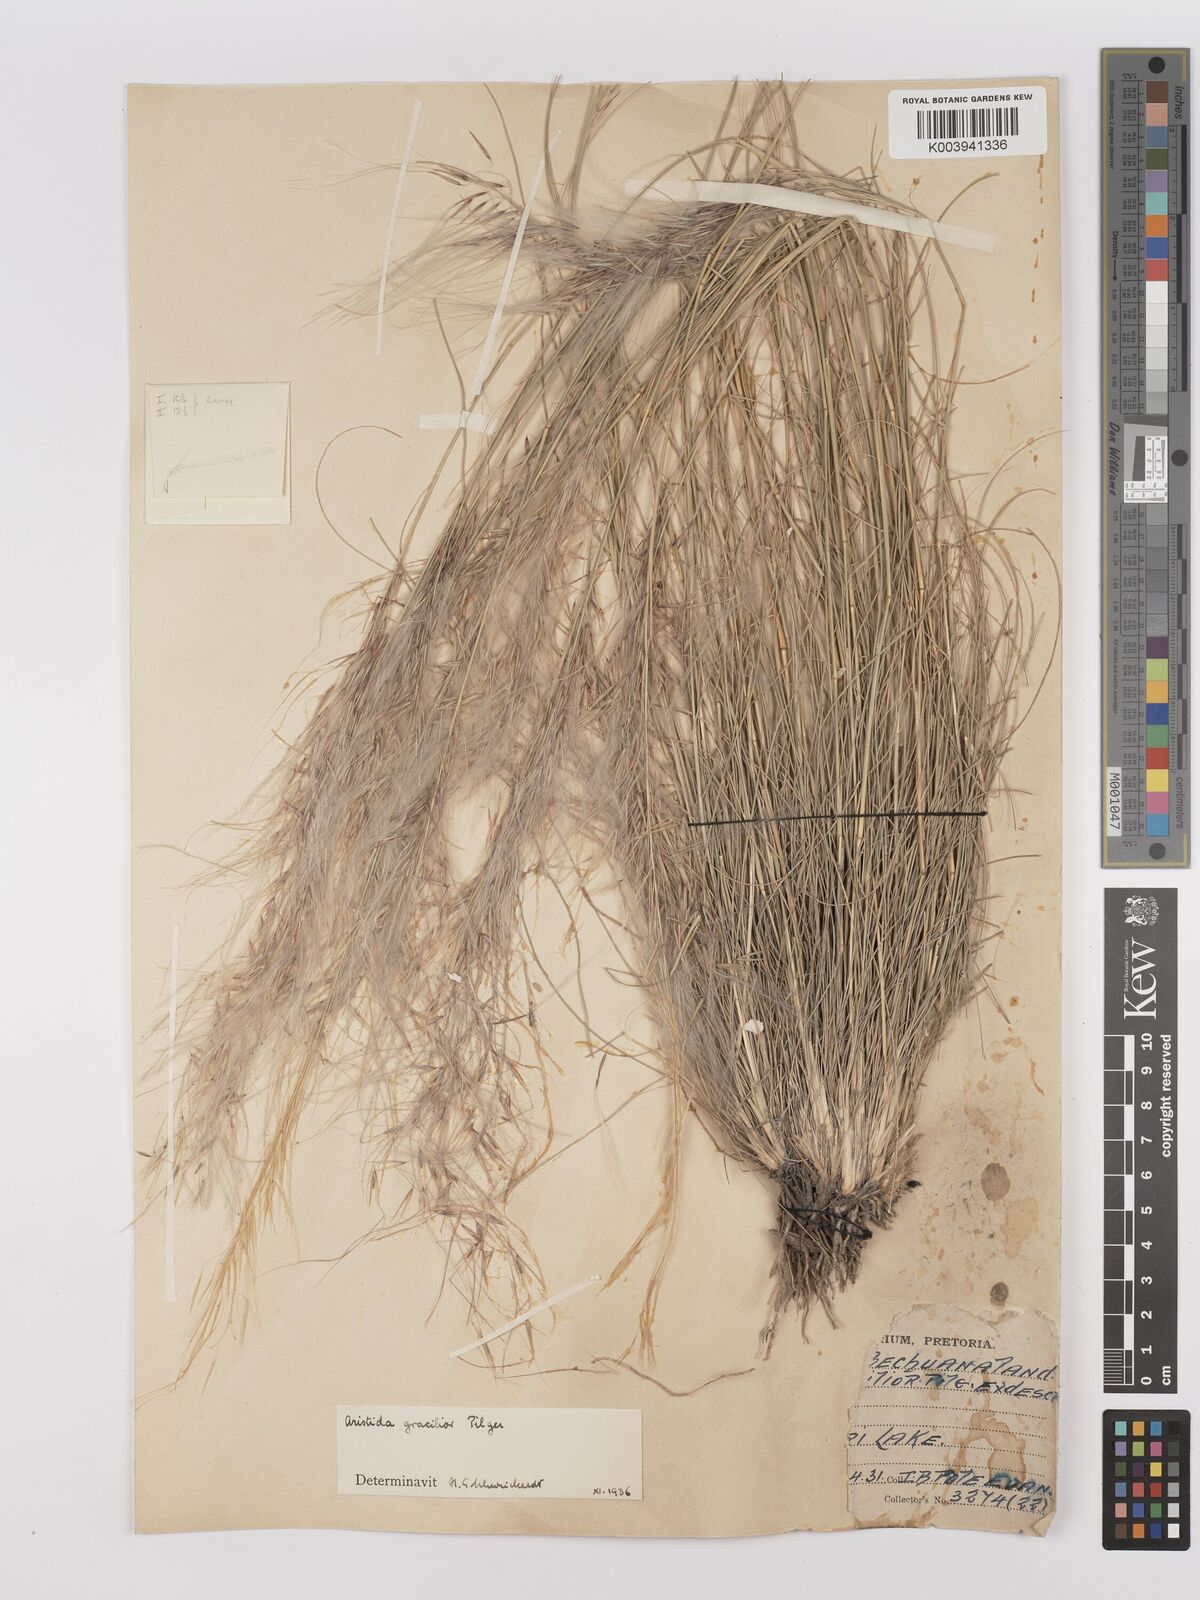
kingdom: Plantae
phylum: Tracheophyta
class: Liliopsida
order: Poales
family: Poaceae
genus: Stipagrostis
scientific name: Stipagrostis hirtigluma
